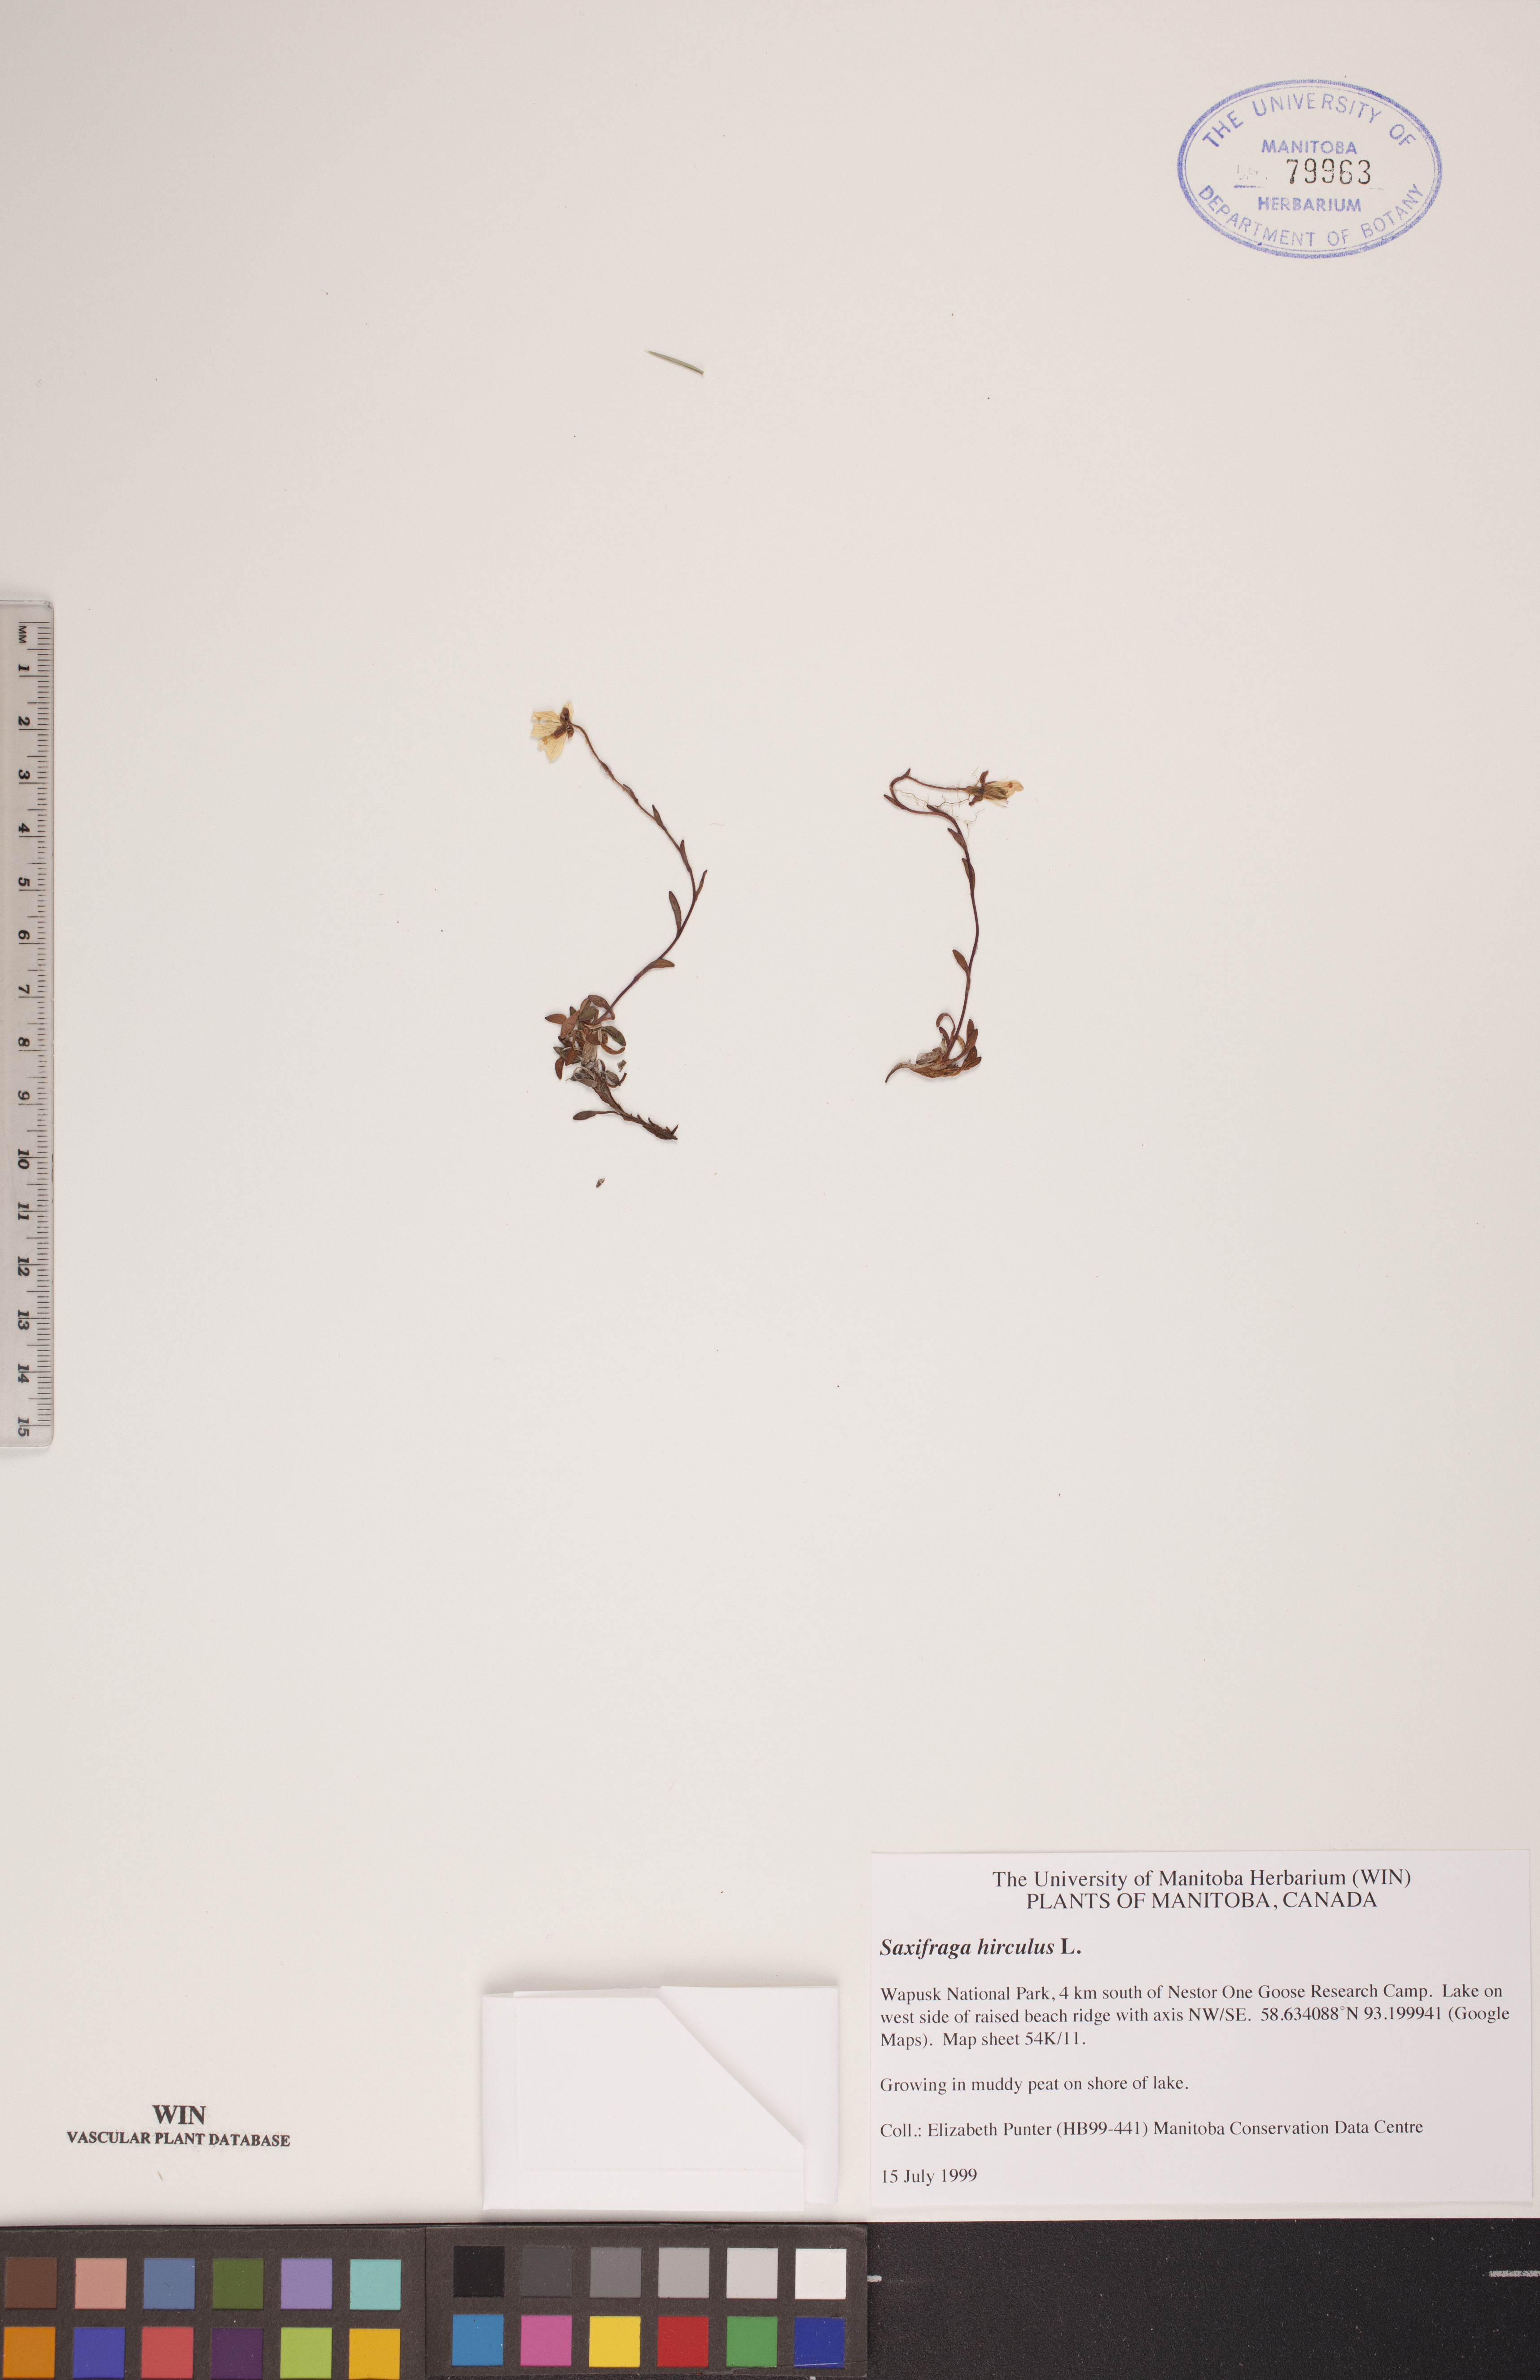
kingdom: Plantae
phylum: Tracheophyta
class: Magnoliopsida
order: Saxifragales
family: Saxifragaceae
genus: Saxifraga
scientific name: Saxifraga hirculus
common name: Yellow marsh saxifrage
